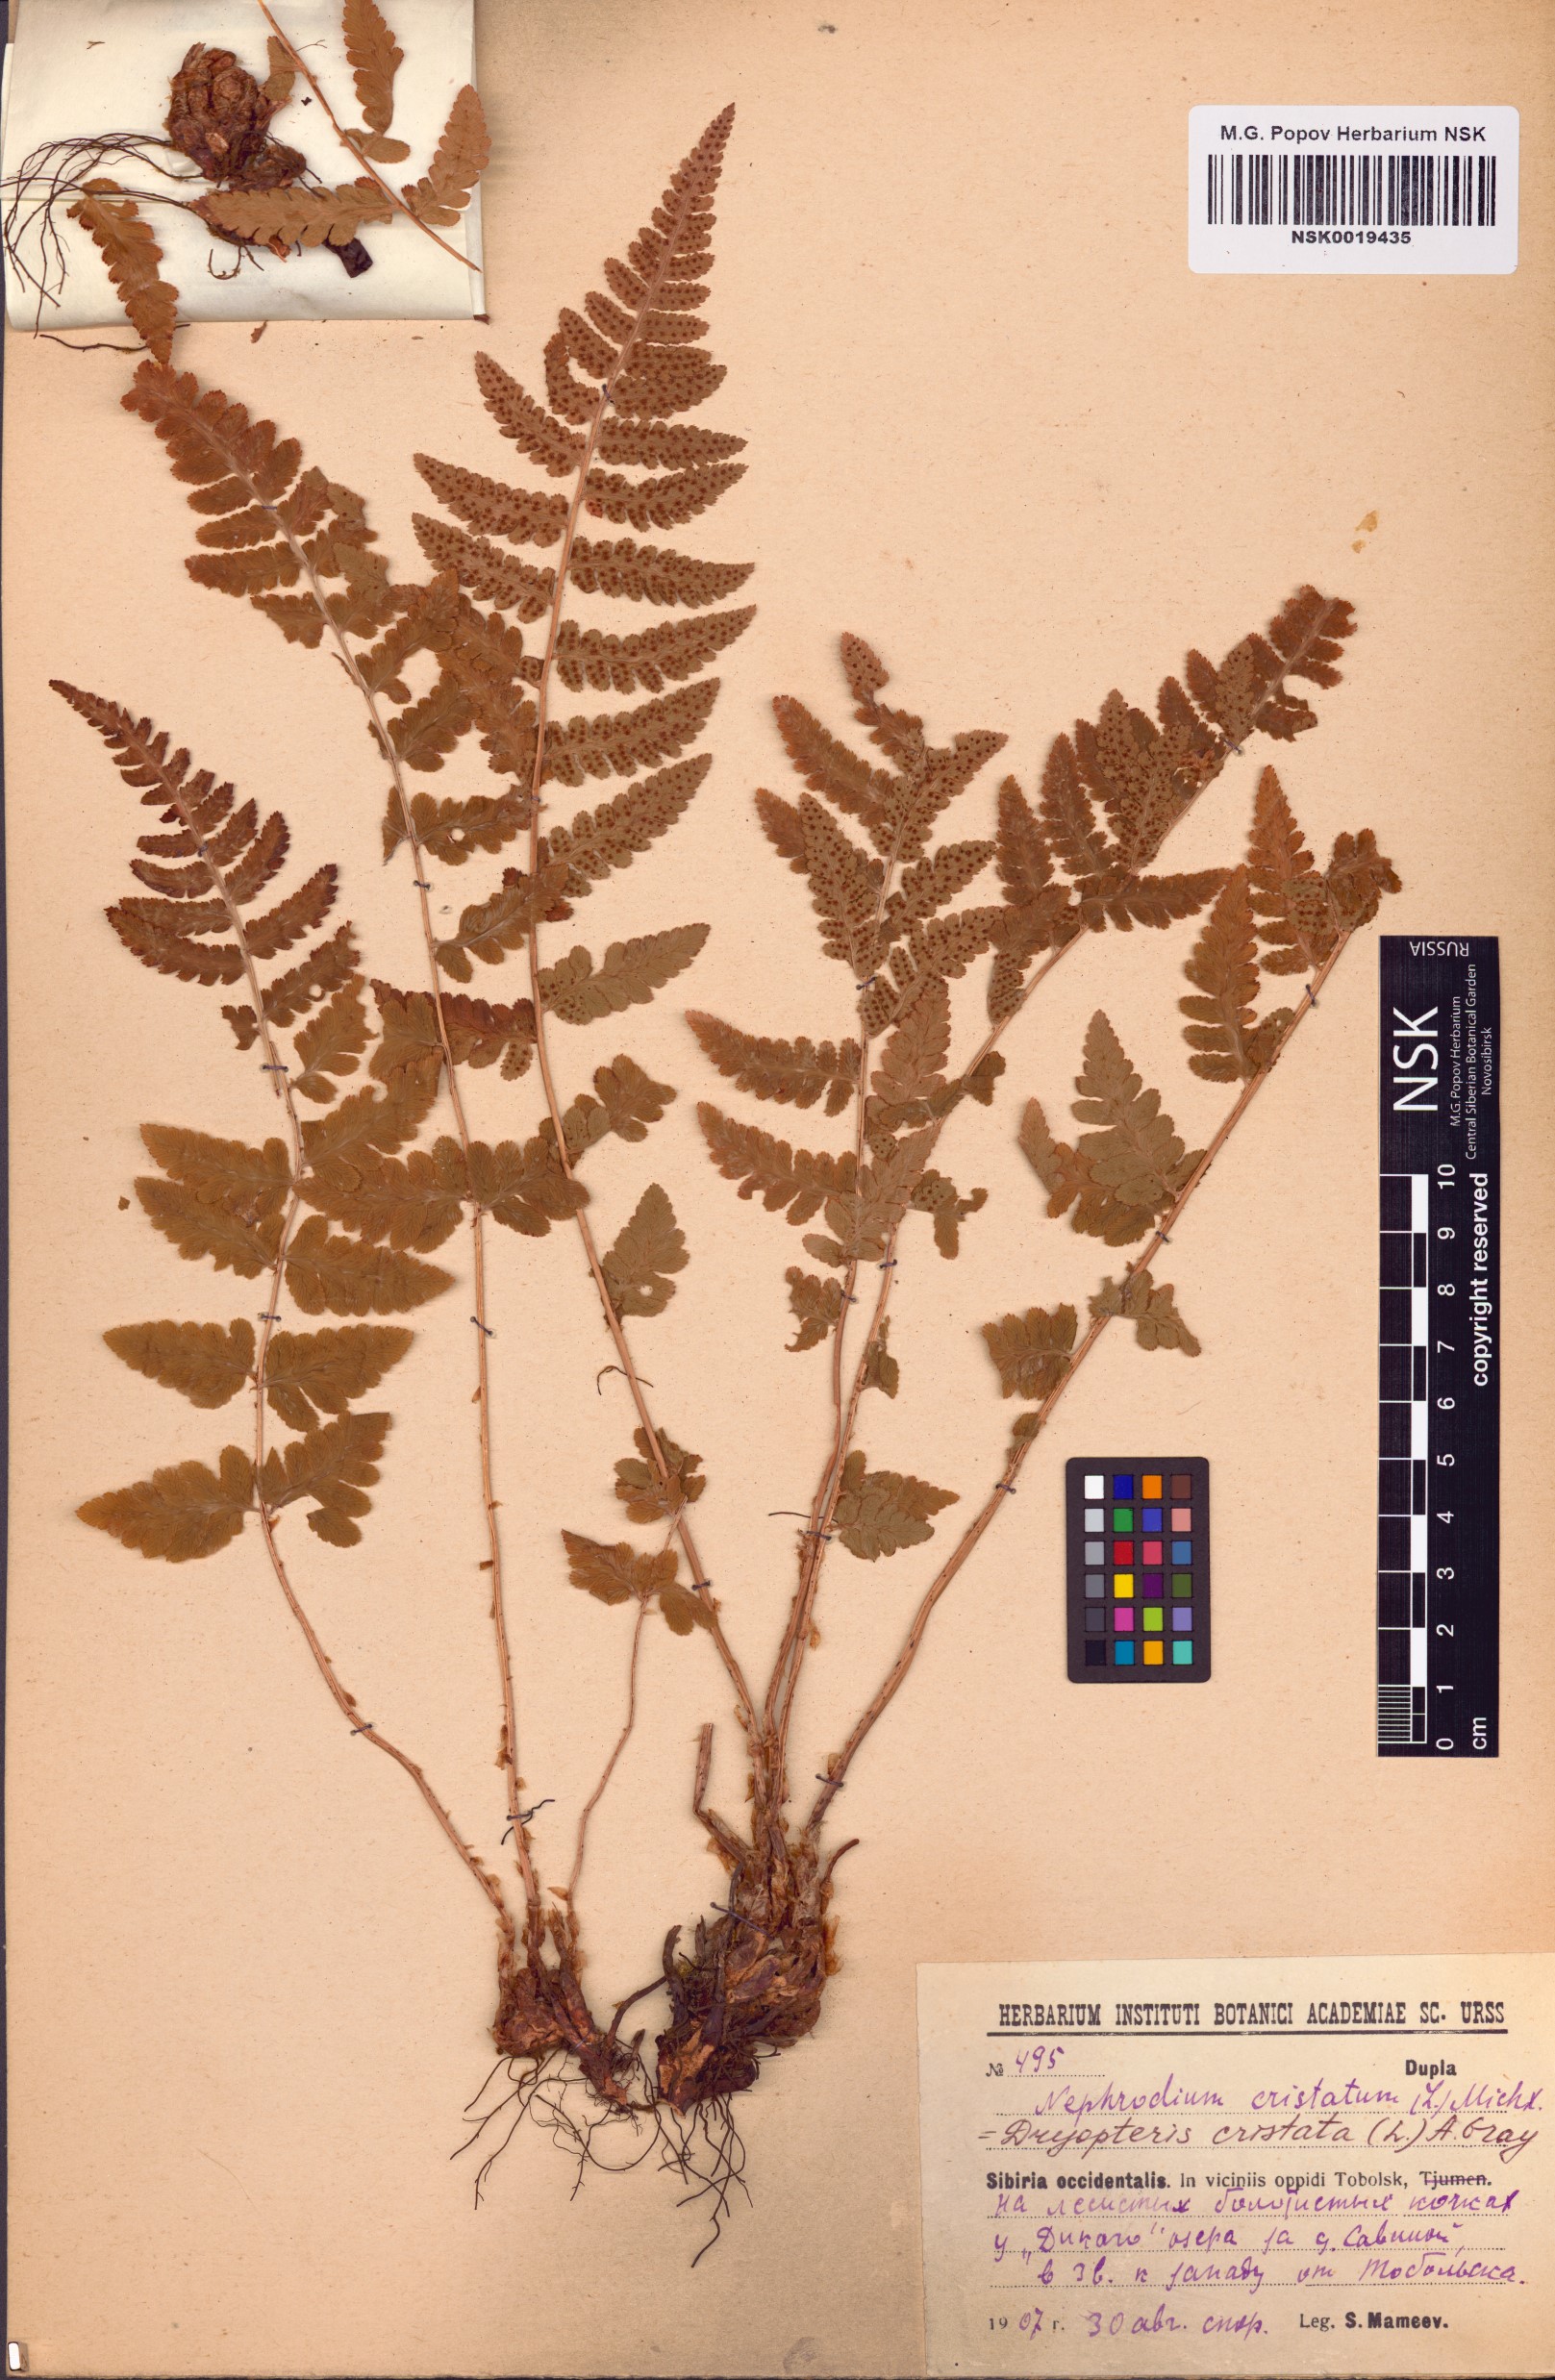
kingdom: Plantae
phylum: Tracheophyta
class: Polypodiopsida
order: Polypodiales
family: Dryopteridaceae
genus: Dryopteris
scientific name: Dryopteris cristata
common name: Crested wood fern
